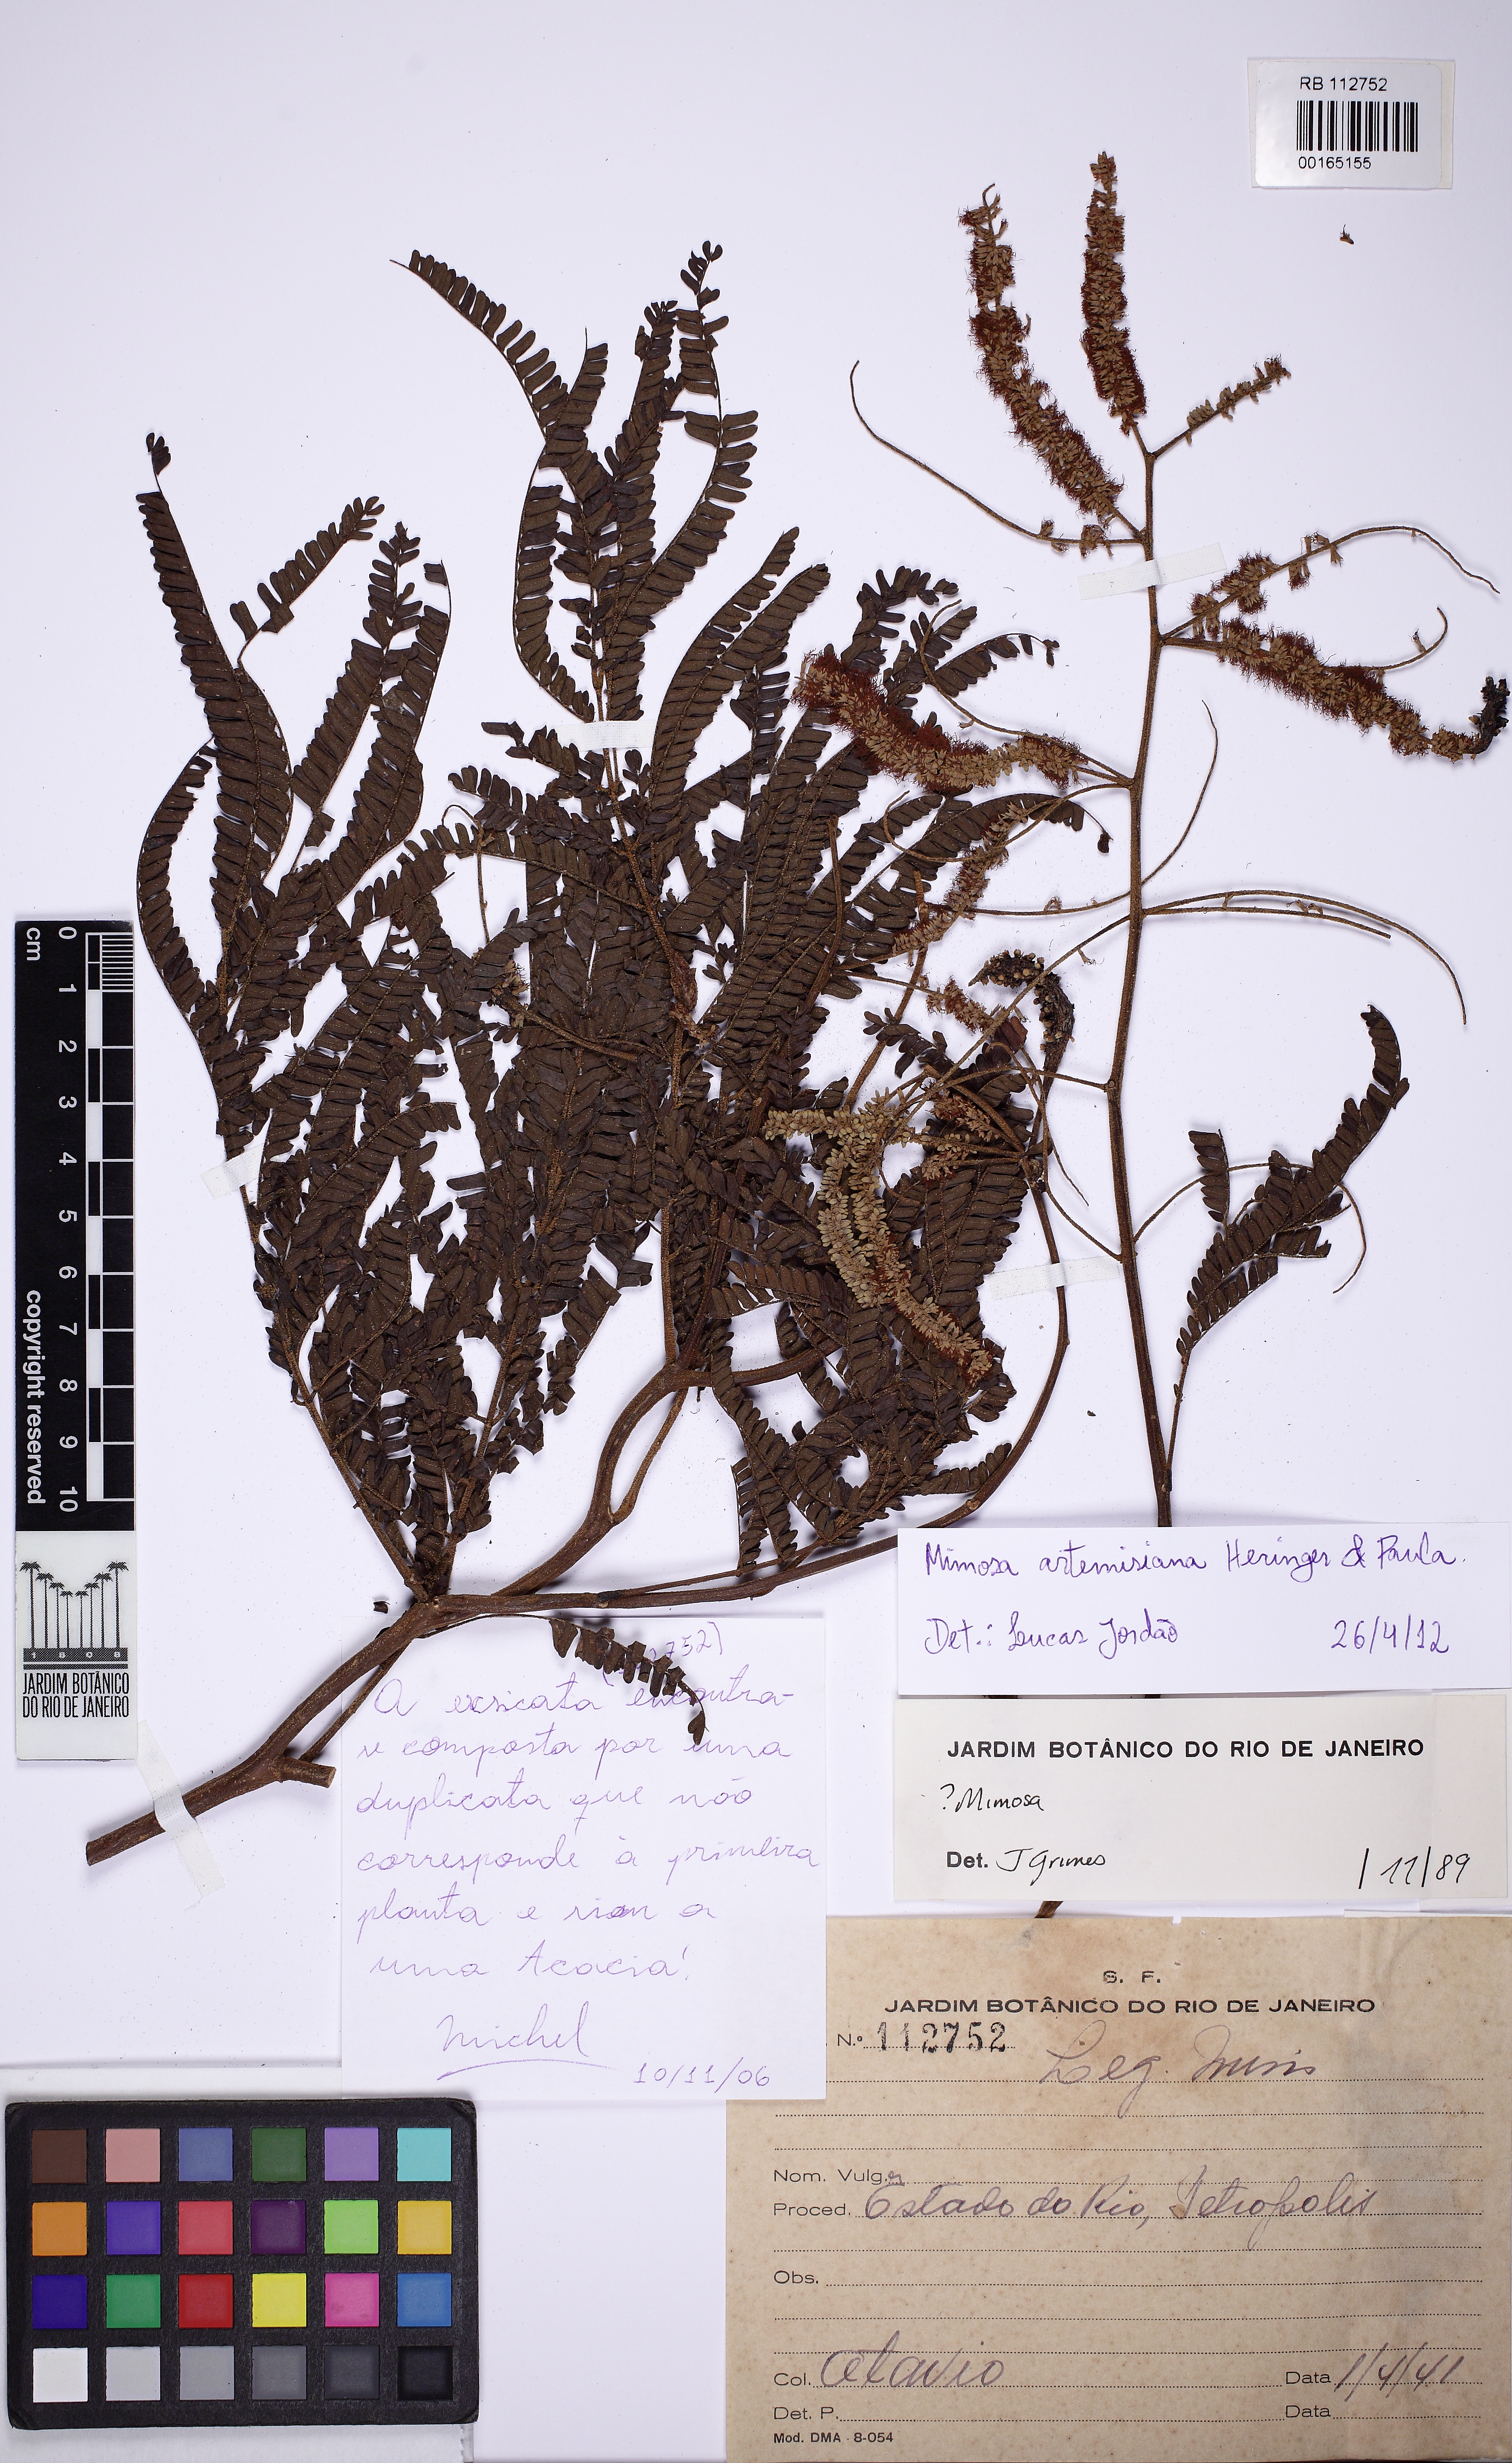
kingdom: Plantae
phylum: Tracheophyta
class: Magnoliopsida
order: Fabales
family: Fabaceae
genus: Mimosa
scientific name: Mimosa schomburgkii
